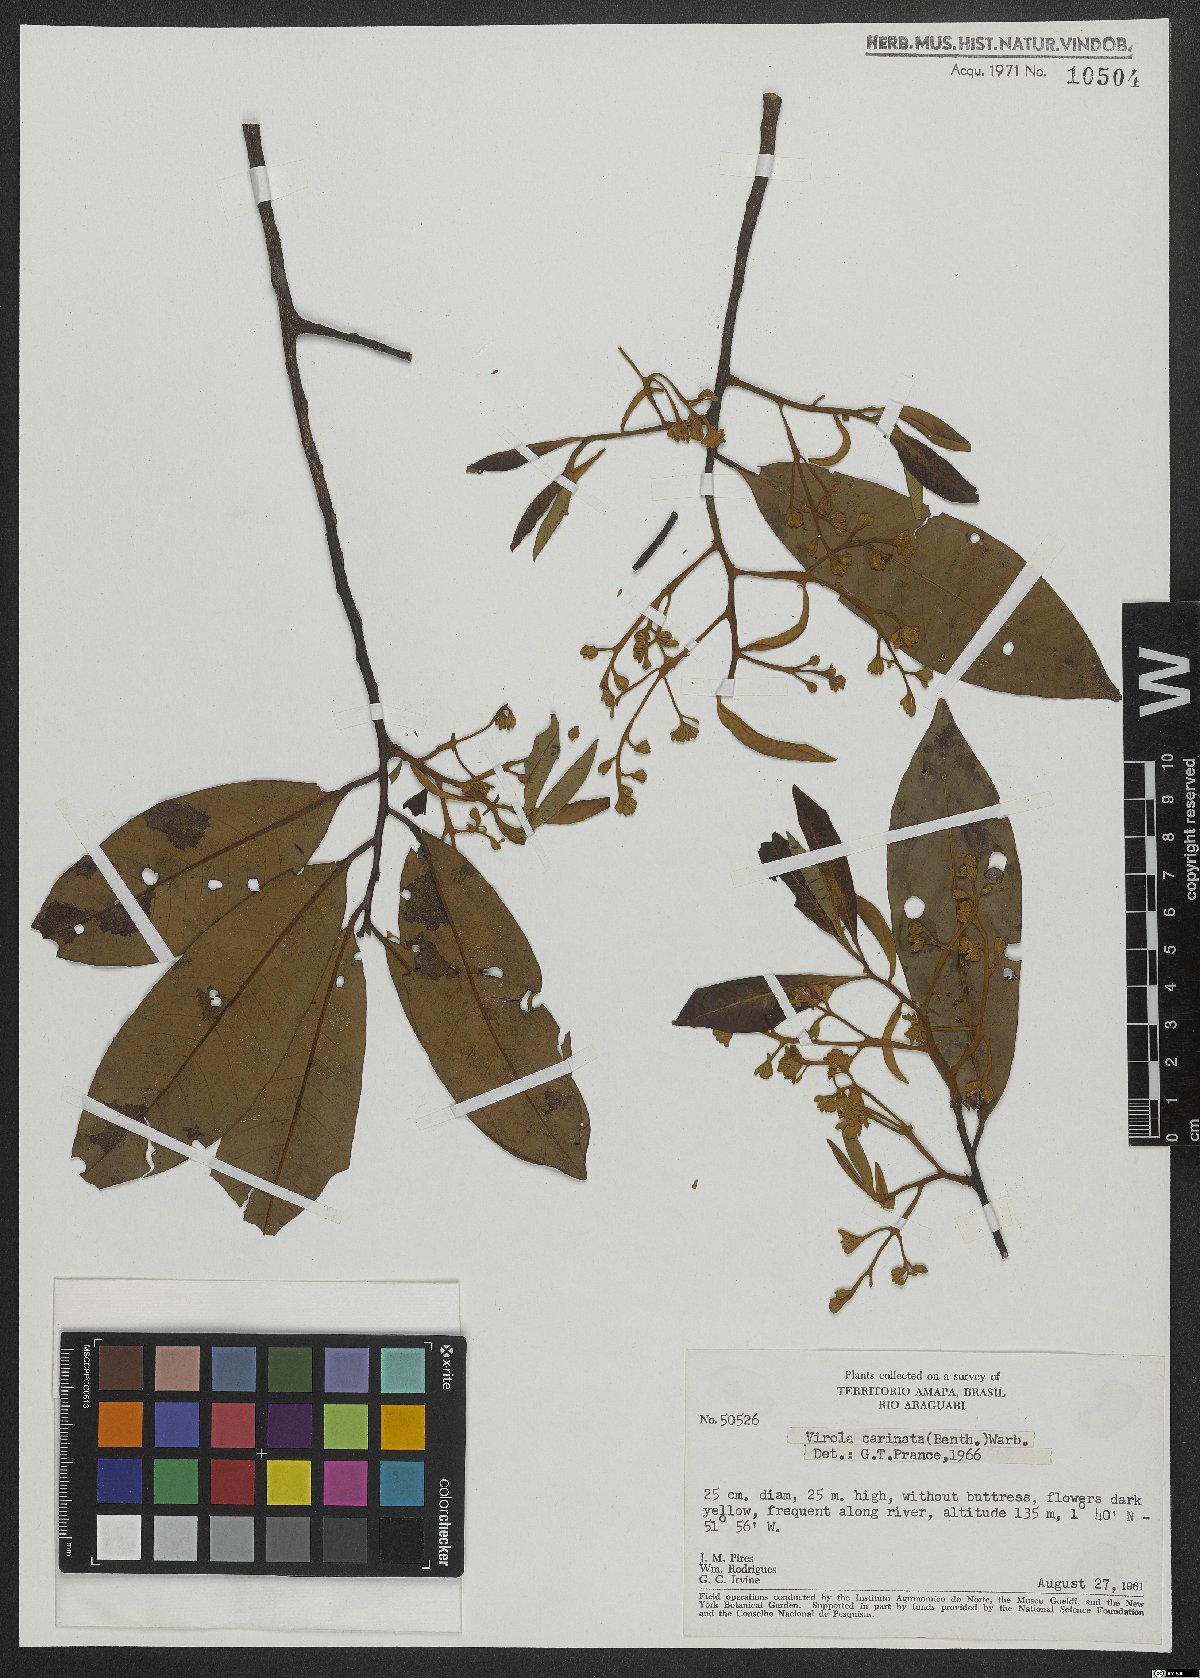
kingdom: Plantae
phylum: Tracheophyta
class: Magnoliopsida
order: Magnoliales
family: Myristicaceae
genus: Virola
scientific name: Virola carinata
